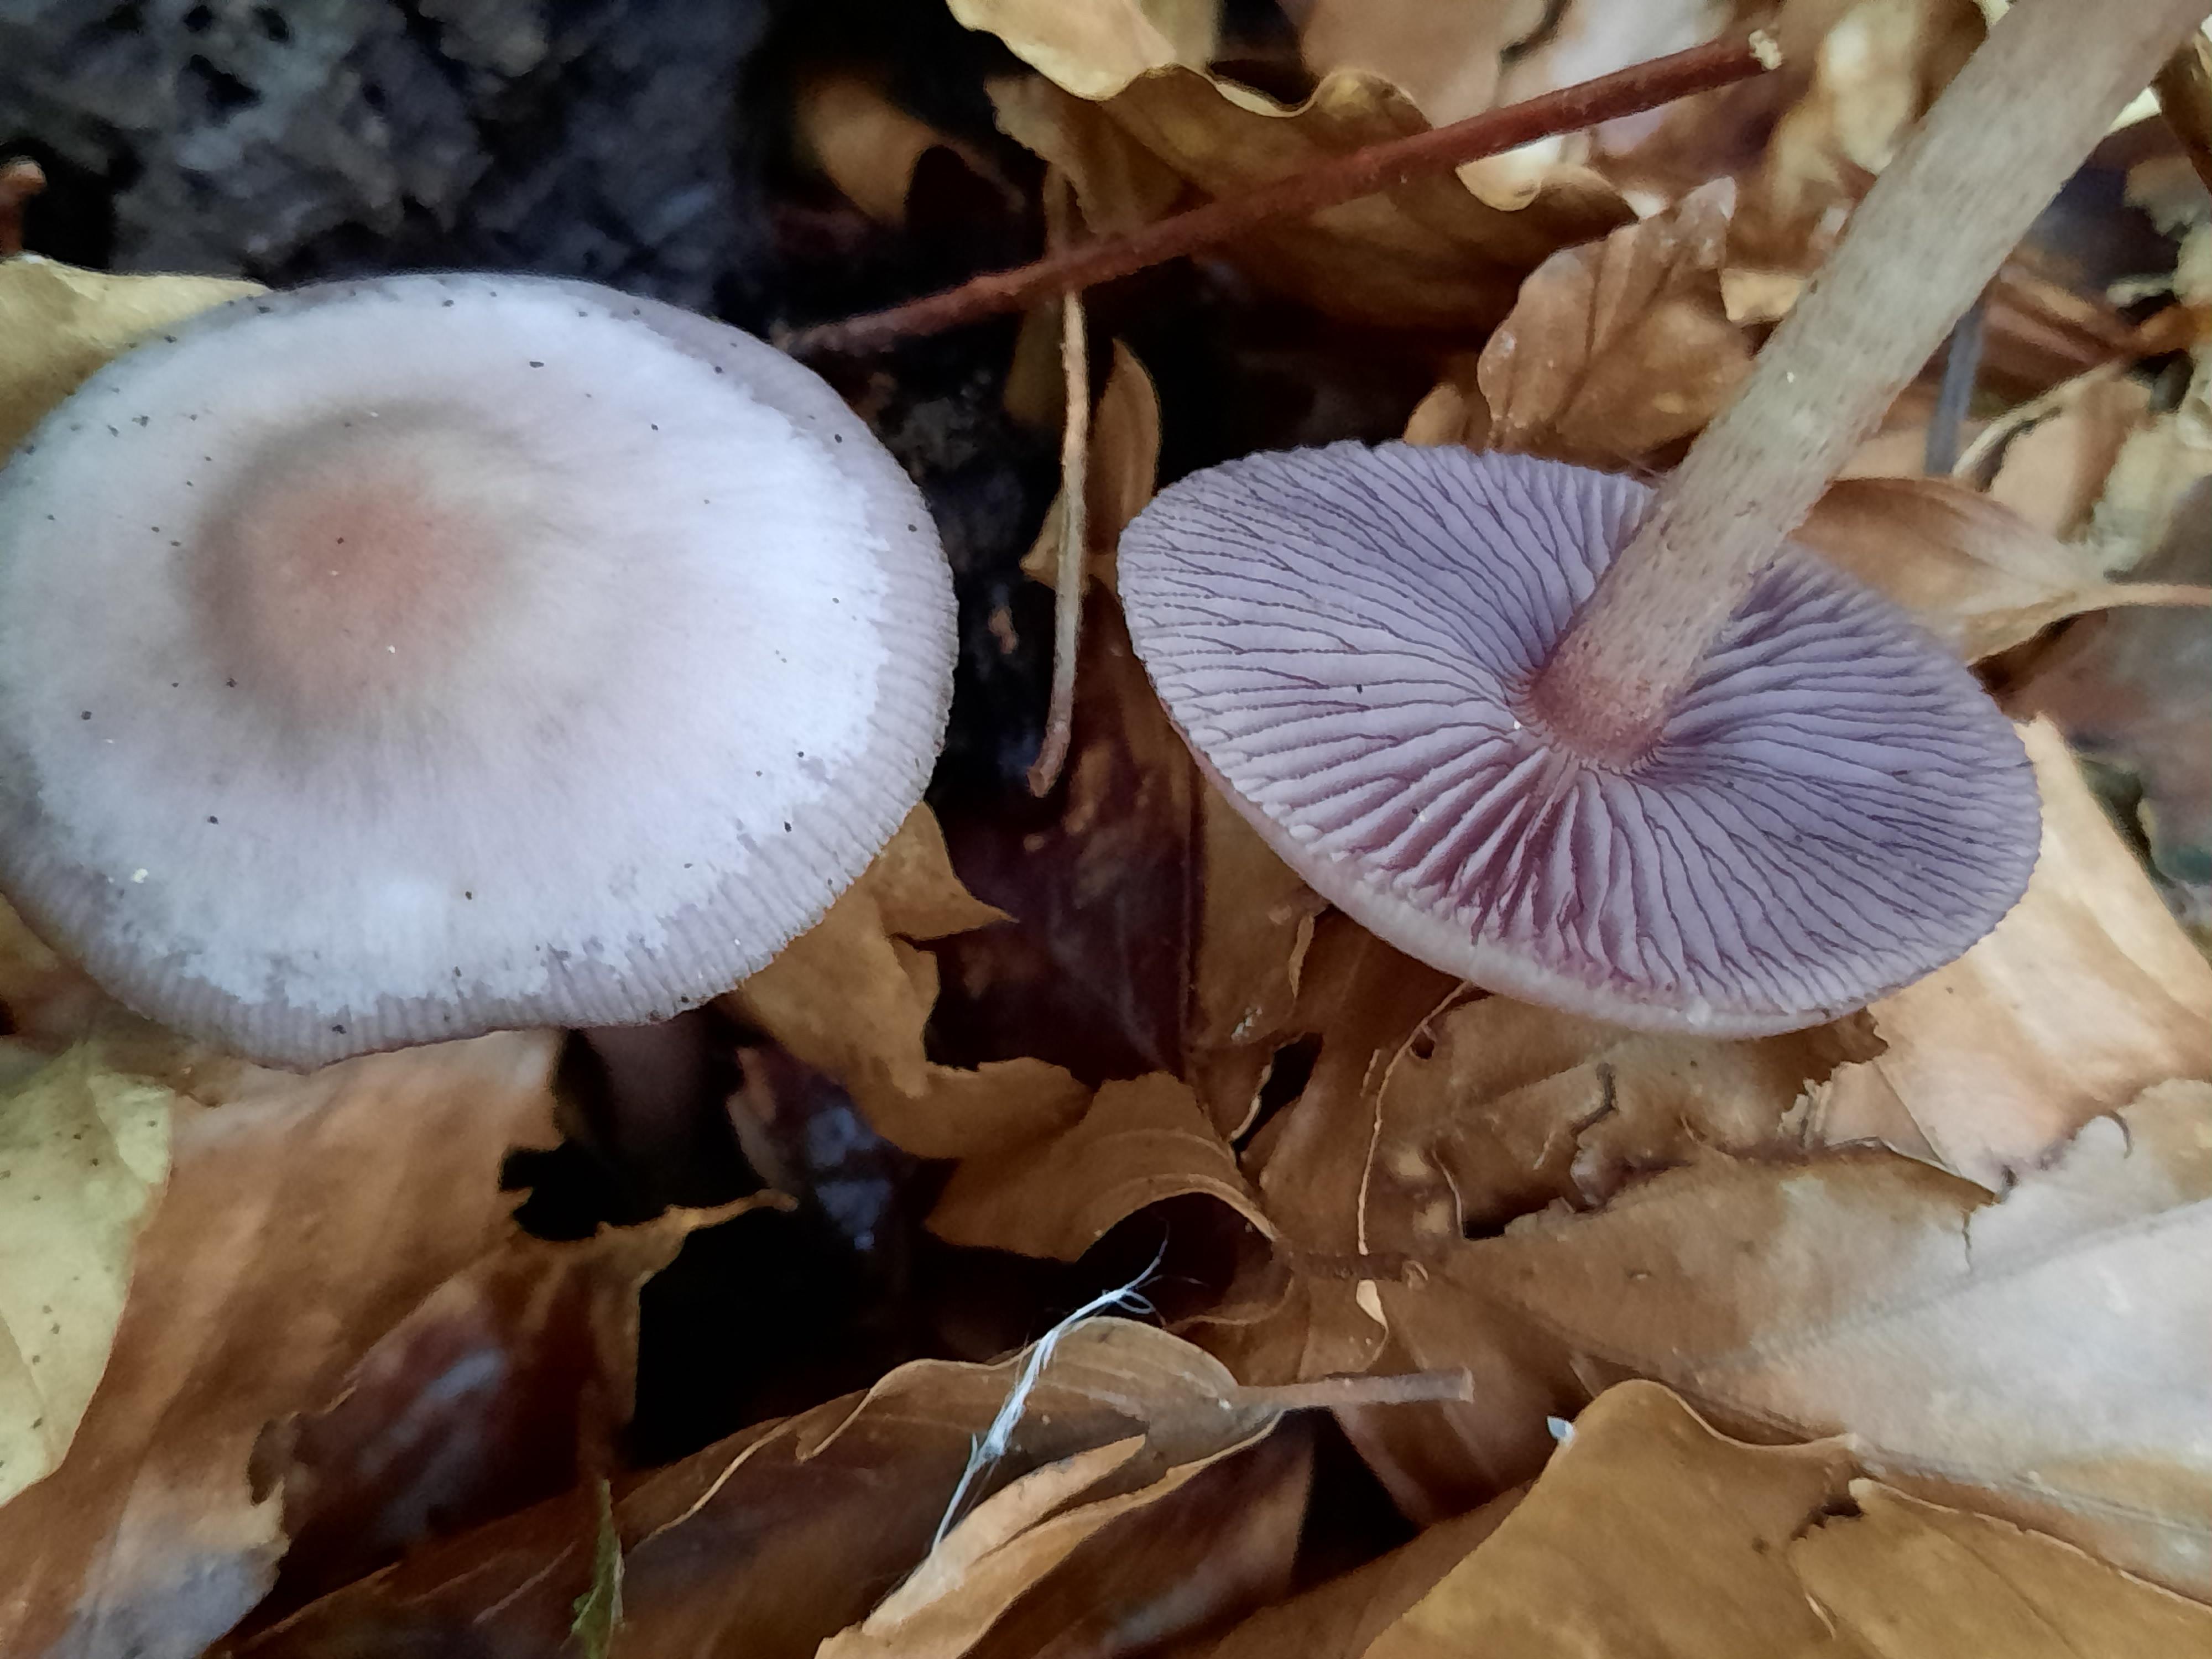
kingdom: Fungi
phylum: Basidiomycota
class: Agaricomycetes
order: Agaricales
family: Mycenaceae
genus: Mycena
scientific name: Mycena pelianthina
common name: mørkbladet huesvamp
